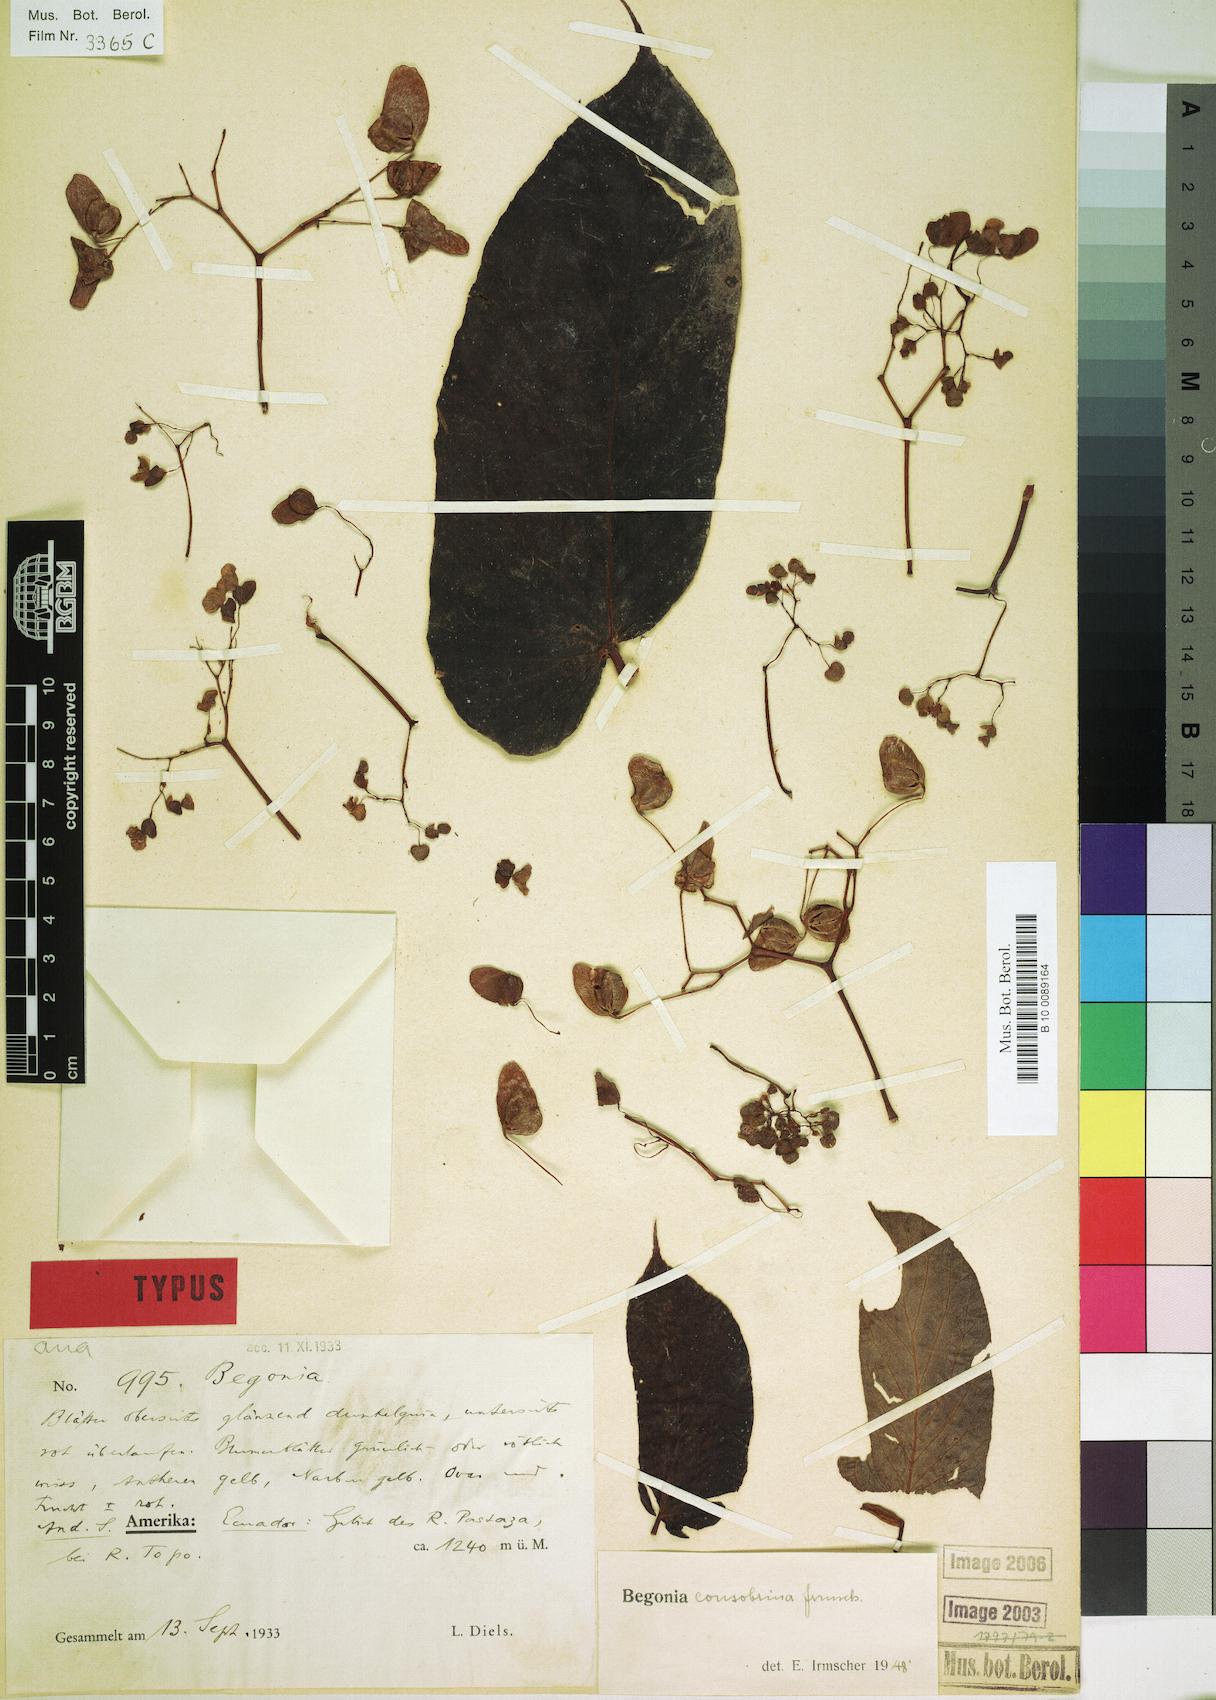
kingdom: Plantae
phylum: Tracheophyta
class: Magnoliopsida
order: Cucurbitales
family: Begoniaceae
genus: Begonia
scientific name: Begonia consobrina
